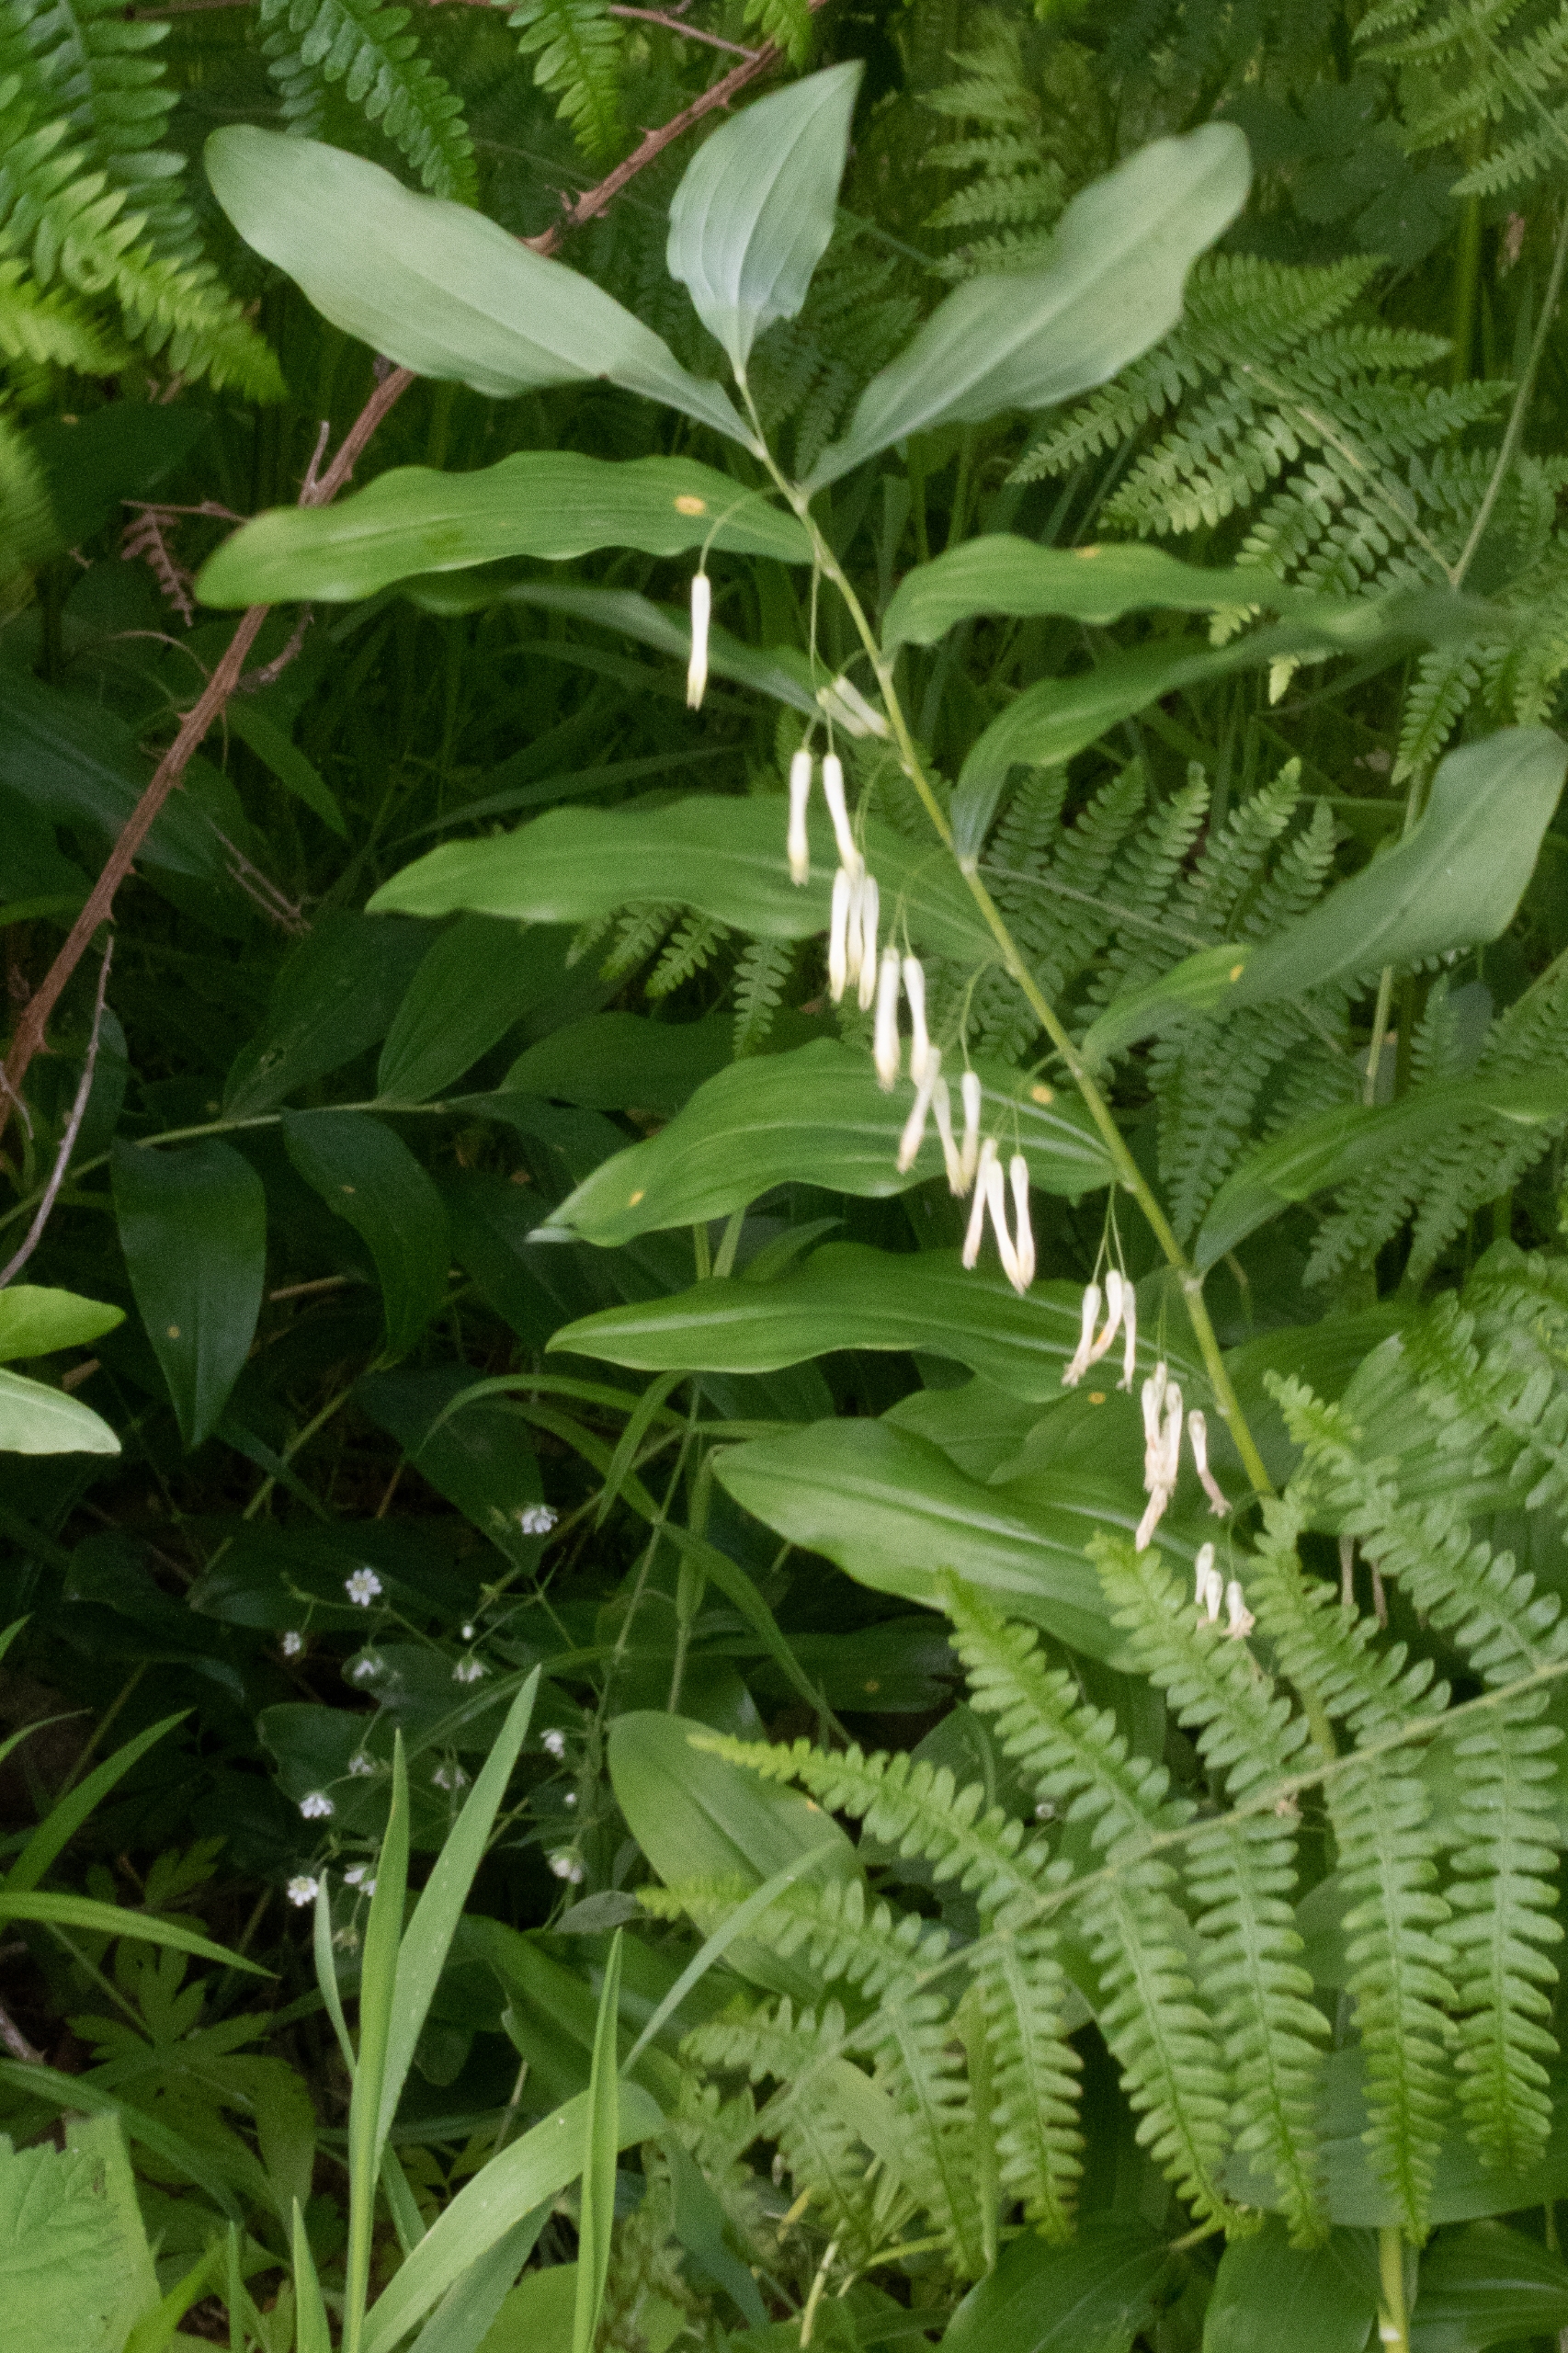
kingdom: Plantae
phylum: Tracheophyta
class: Liliopsida
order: Asparagales
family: Asparagaceae
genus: Polygonatum
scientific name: Polygonatum multiflorum
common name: Stor konval
